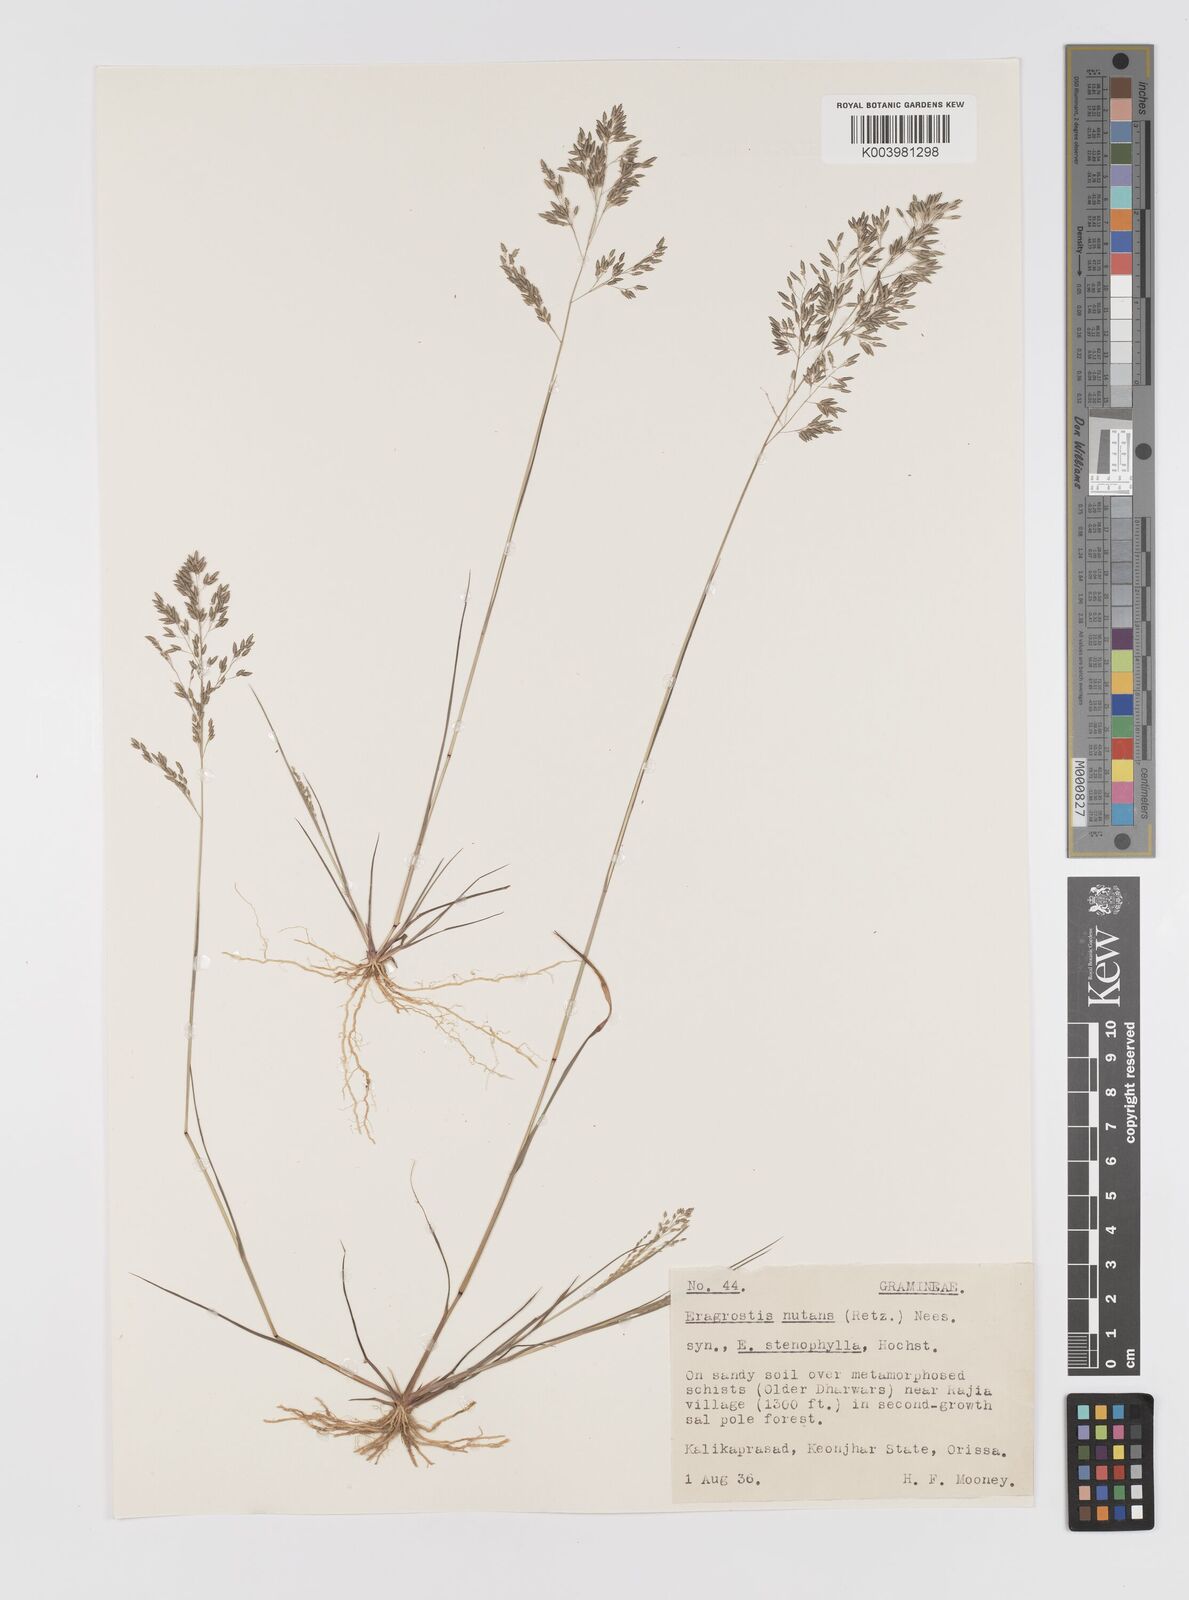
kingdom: Plantae
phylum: Tracheophyta
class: Liliopsida
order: Poales
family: Poaceae
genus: Eragrostis
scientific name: Eragrostis gangetica
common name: Slimflower lovegrass
